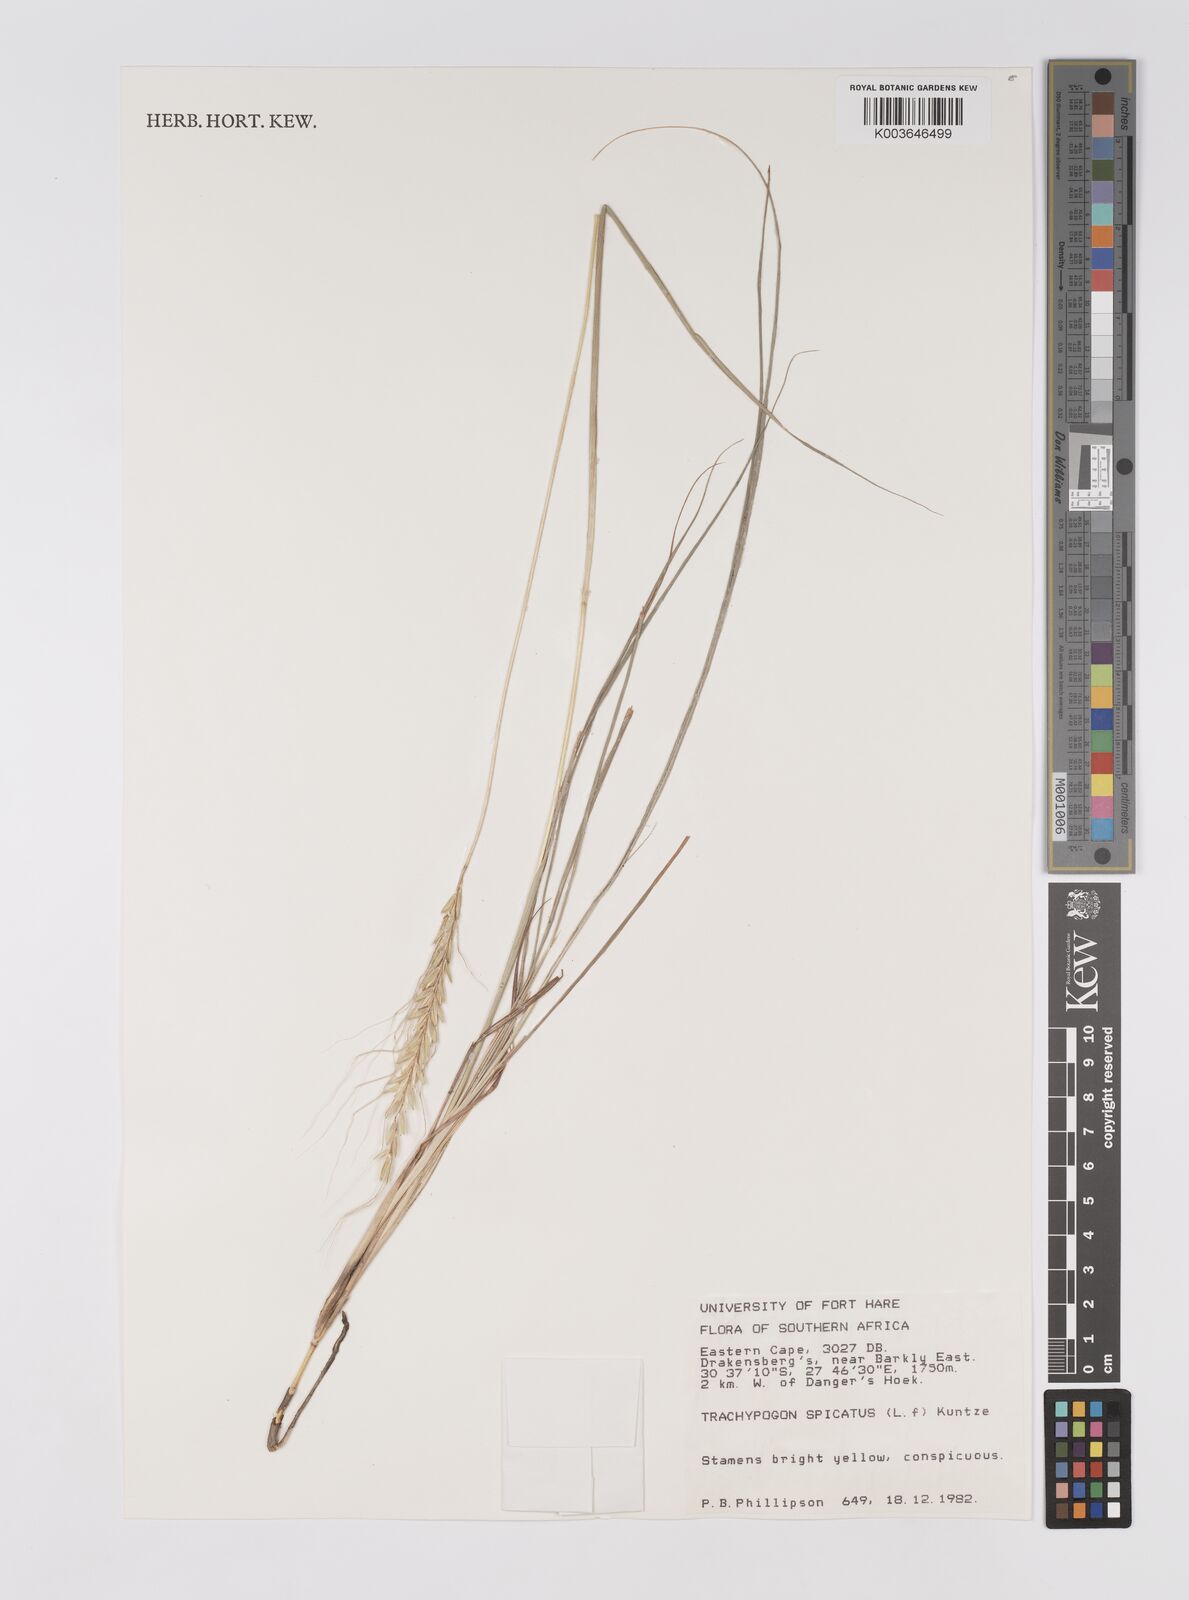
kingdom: Plantae
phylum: Tracheophyta
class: Liliopsida
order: Poales
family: Poaceae
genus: Trachypogon
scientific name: Trachypogon spicatus
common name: Crinkle-awn
